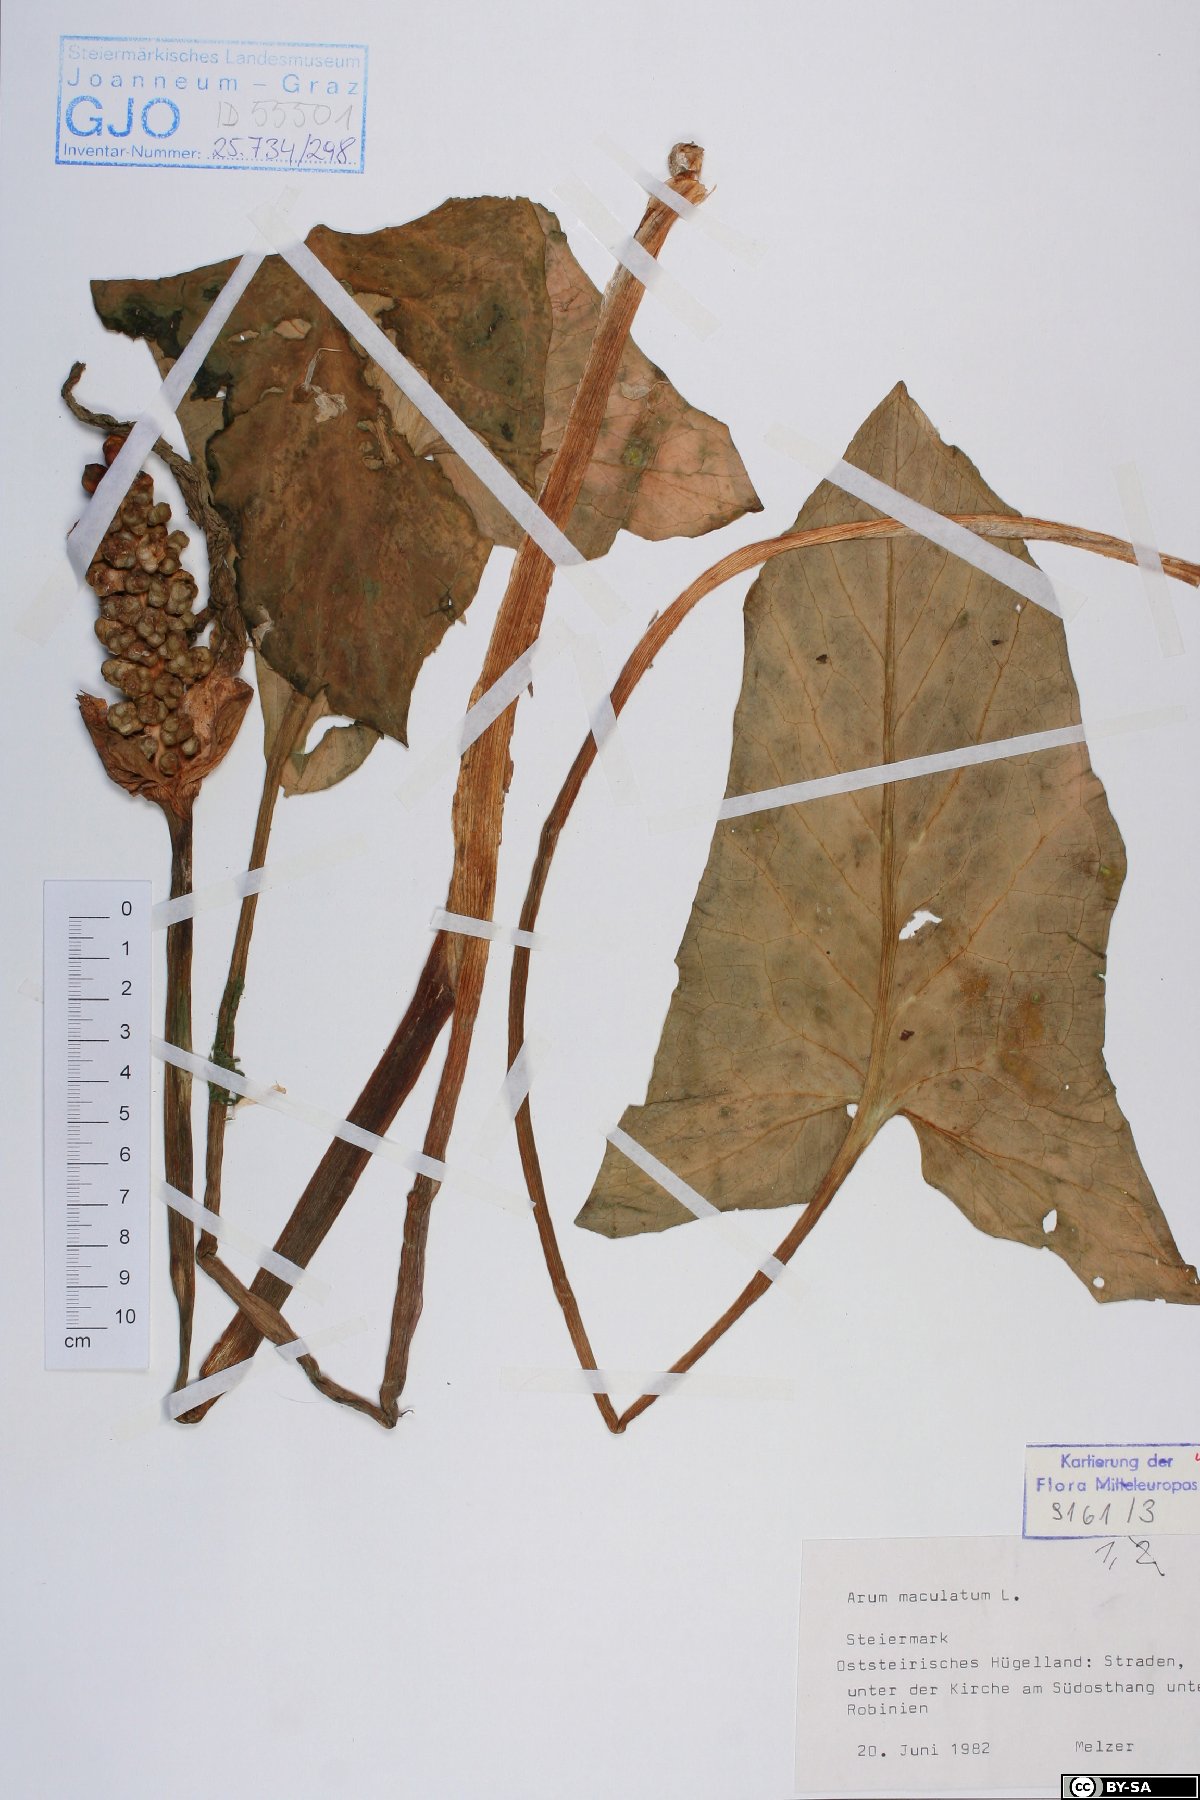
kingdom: Plantae
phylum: Tracheophyta
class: Liliopsida
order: Alismatales
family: Araceae
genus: Arum
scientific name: Arum maculatum
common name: Lords-and-ladies
